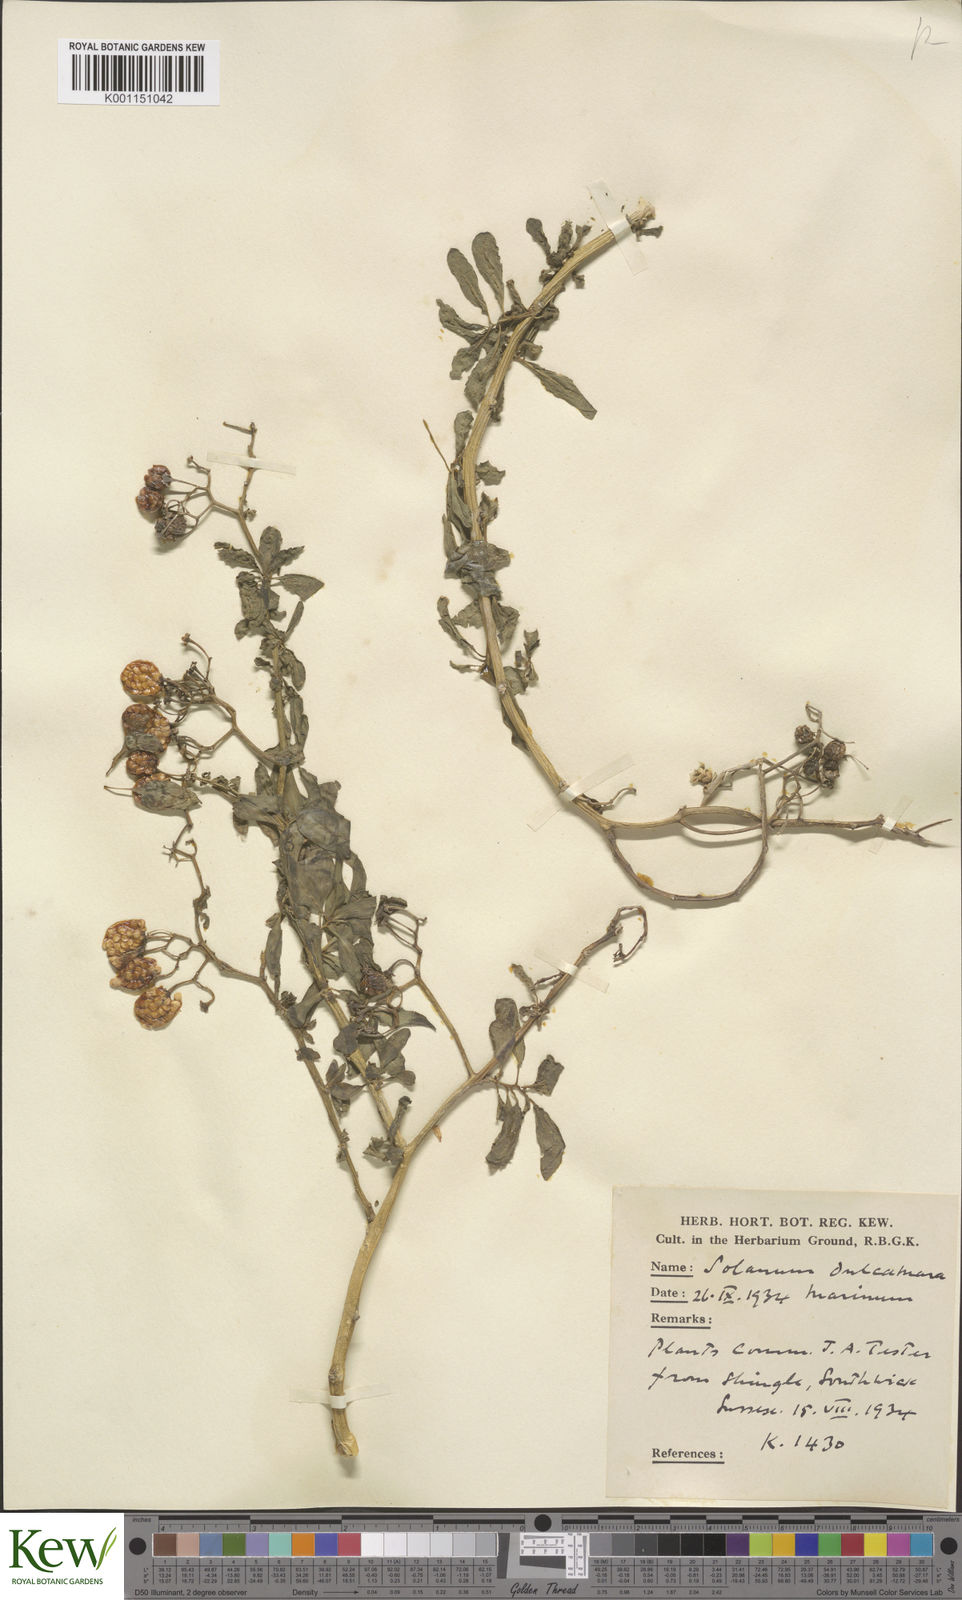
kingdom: Plantae
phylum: Tracheophyta
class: Magnoliopsida
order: Solanales
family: Solanaceae
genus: Solanum
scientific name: Solanum dulcamara
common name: Climbing nightshade
